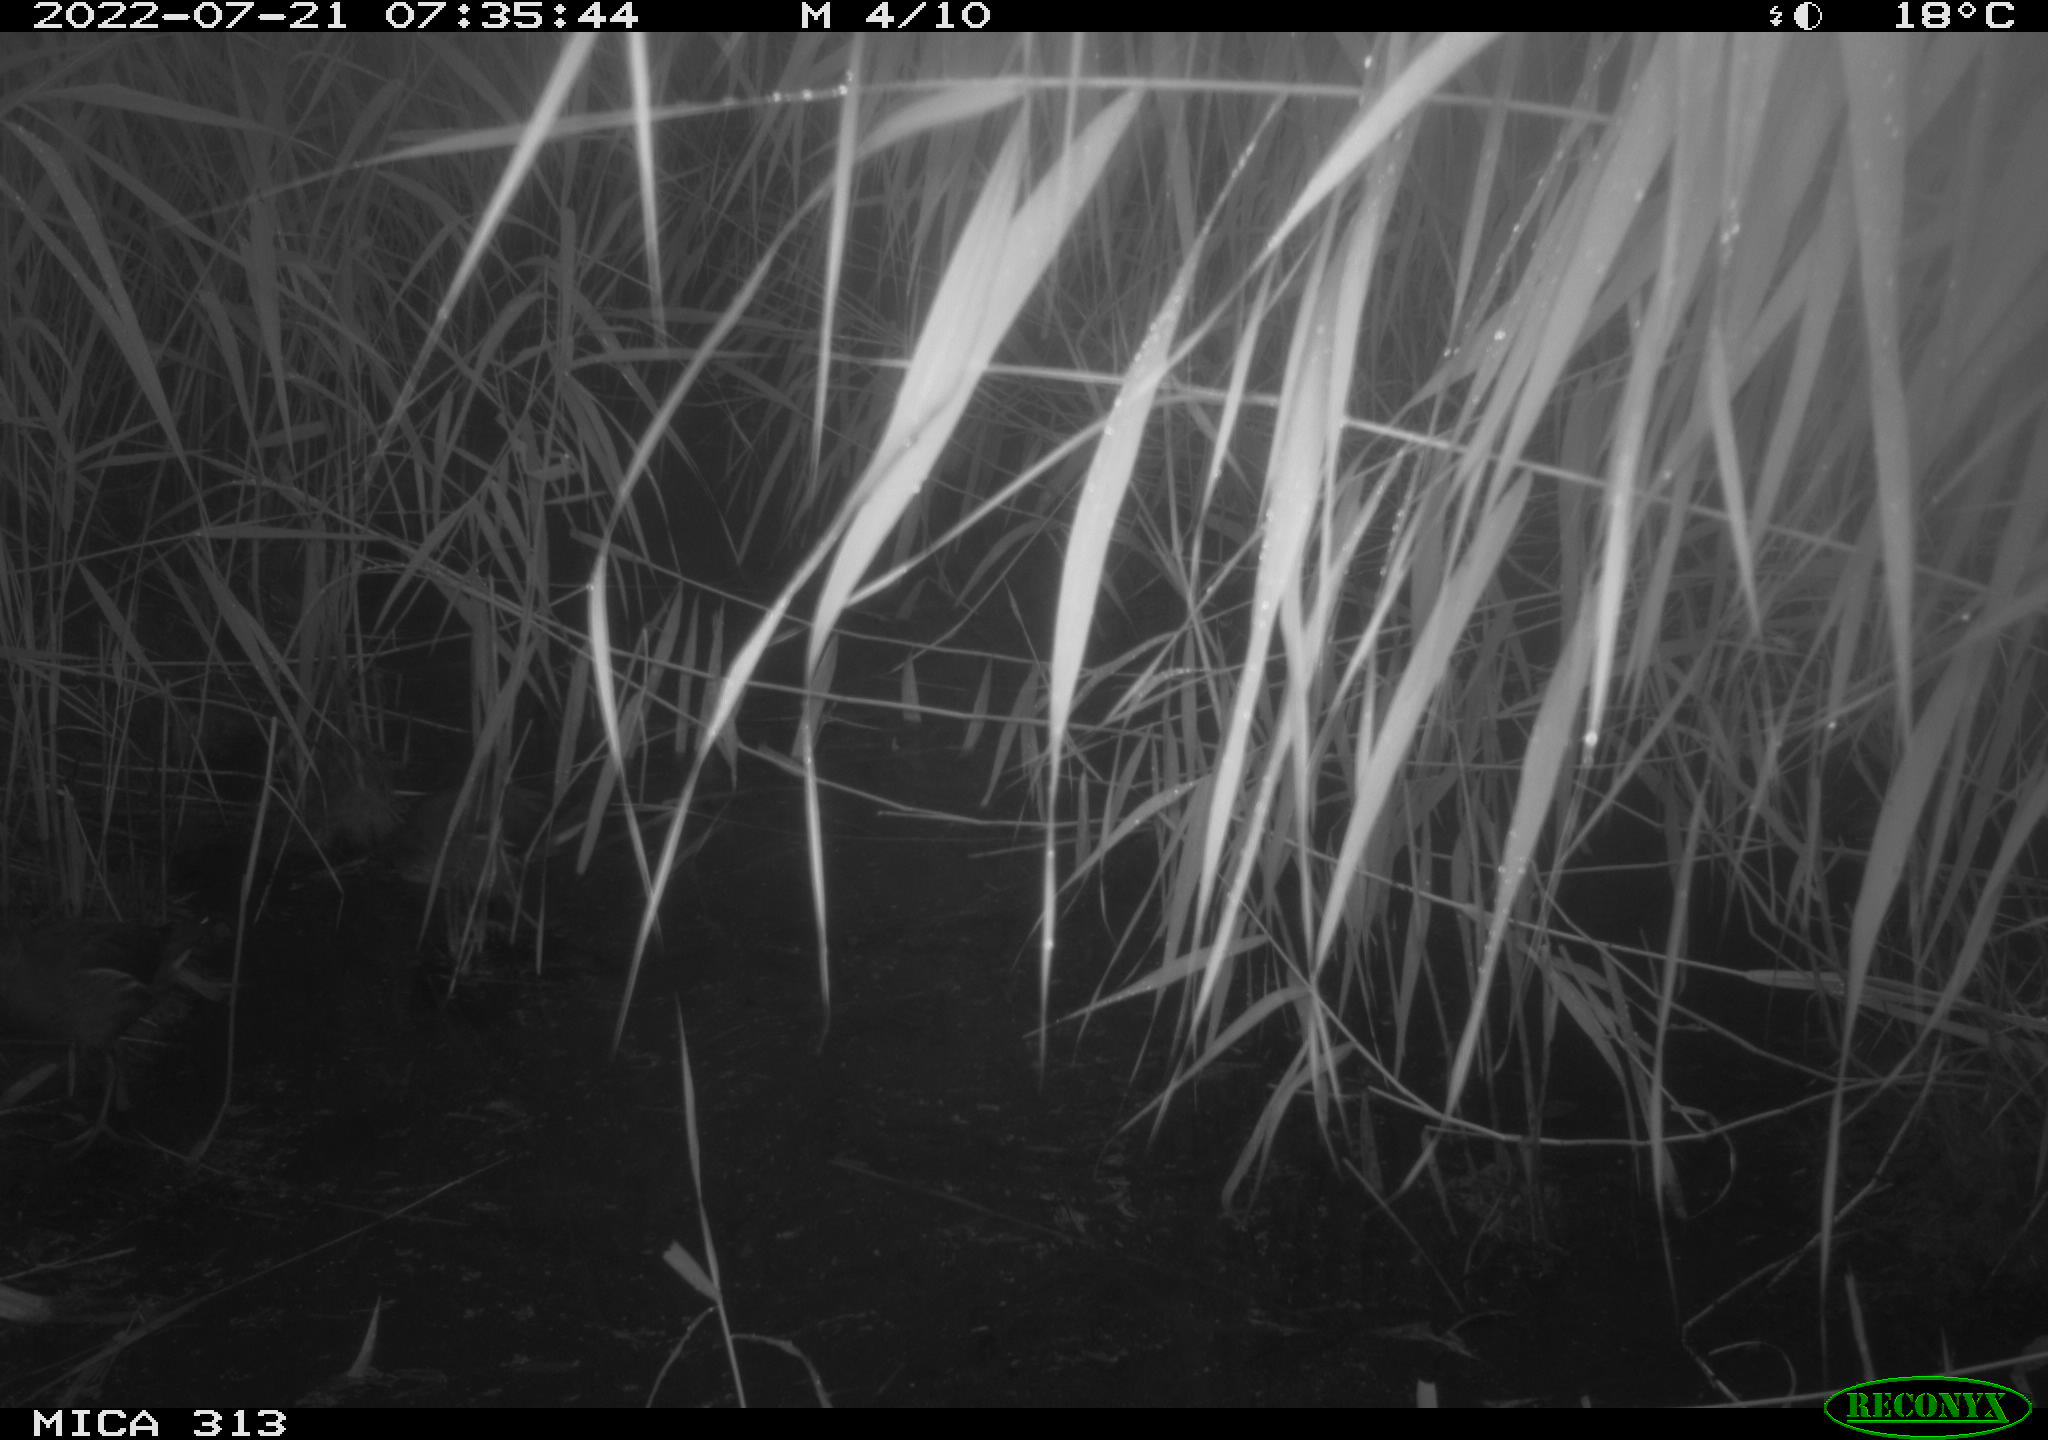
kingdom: Animalia
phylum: Chordata
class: Aves
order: Anseriformes
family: Anatidae
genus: Mareca
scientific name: Mareca strepera
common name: Gadwall
